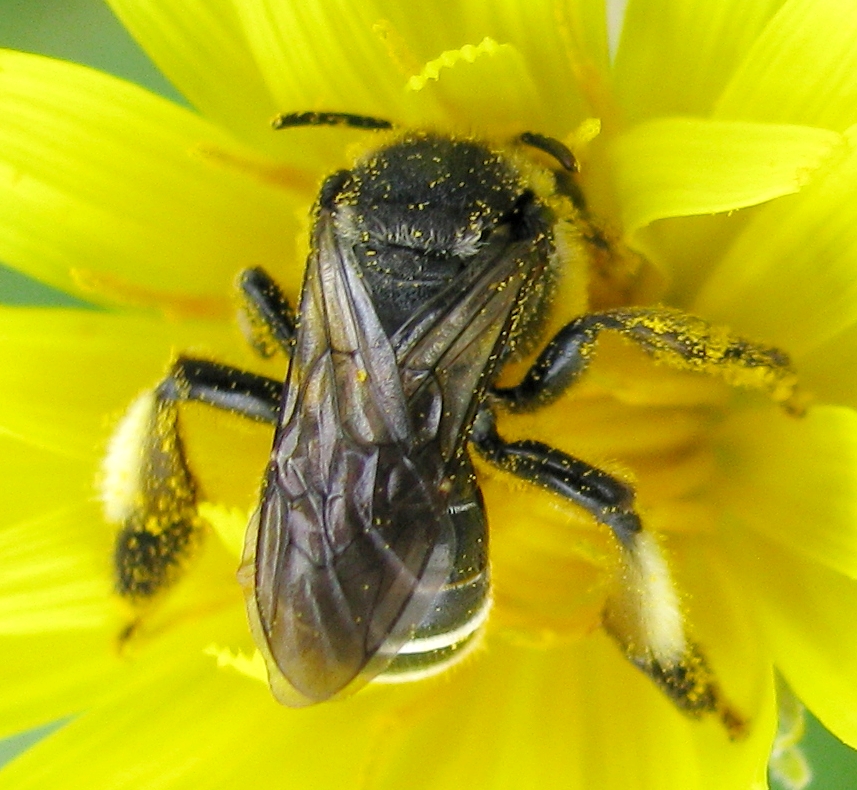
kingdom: Animalia
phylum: Arthropoda
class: Insecta
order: Hymenoptera
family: Melittidae
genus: Macropis
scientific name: Macropis europaea
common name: Yellow loosestrife bee
